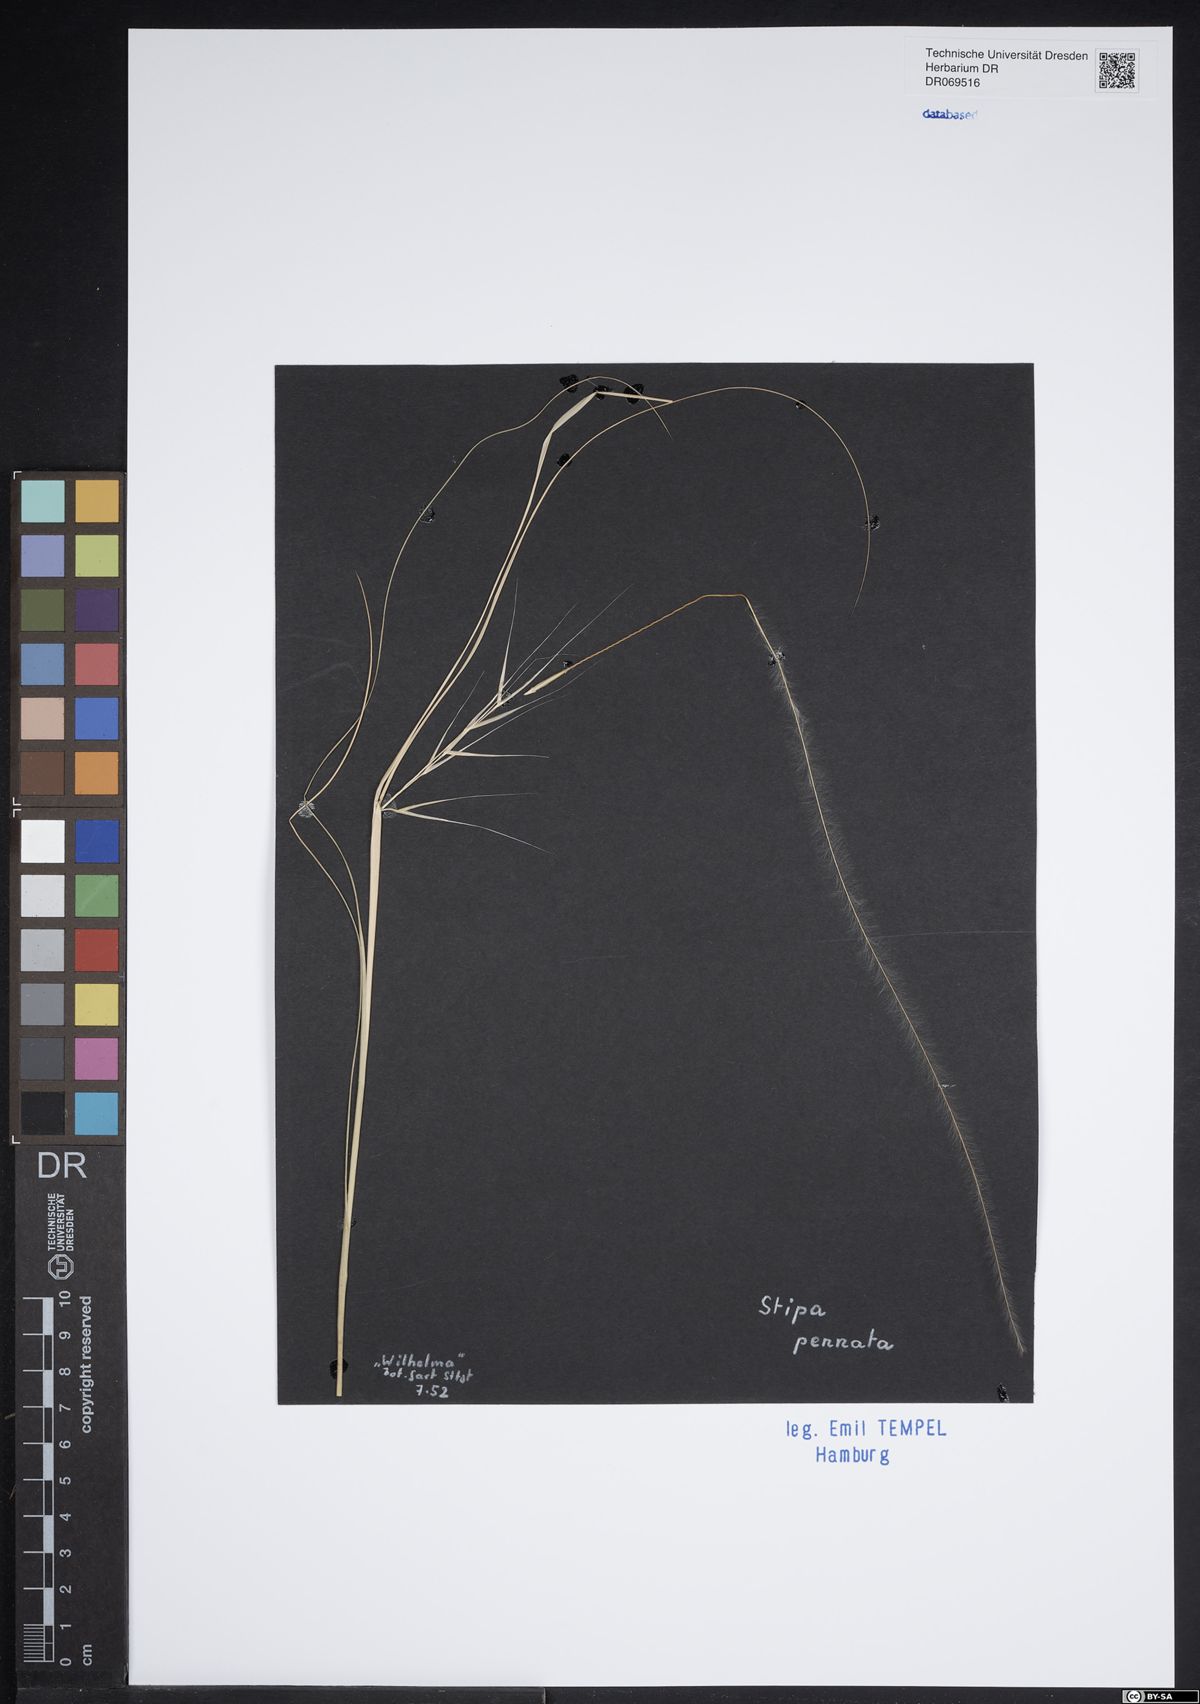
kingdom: Plantae
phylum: Tracheophyta
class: Liliopsida
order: Poales
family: Poaceae
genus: Stipa
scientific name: Stipa pennata
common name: European feather grass
